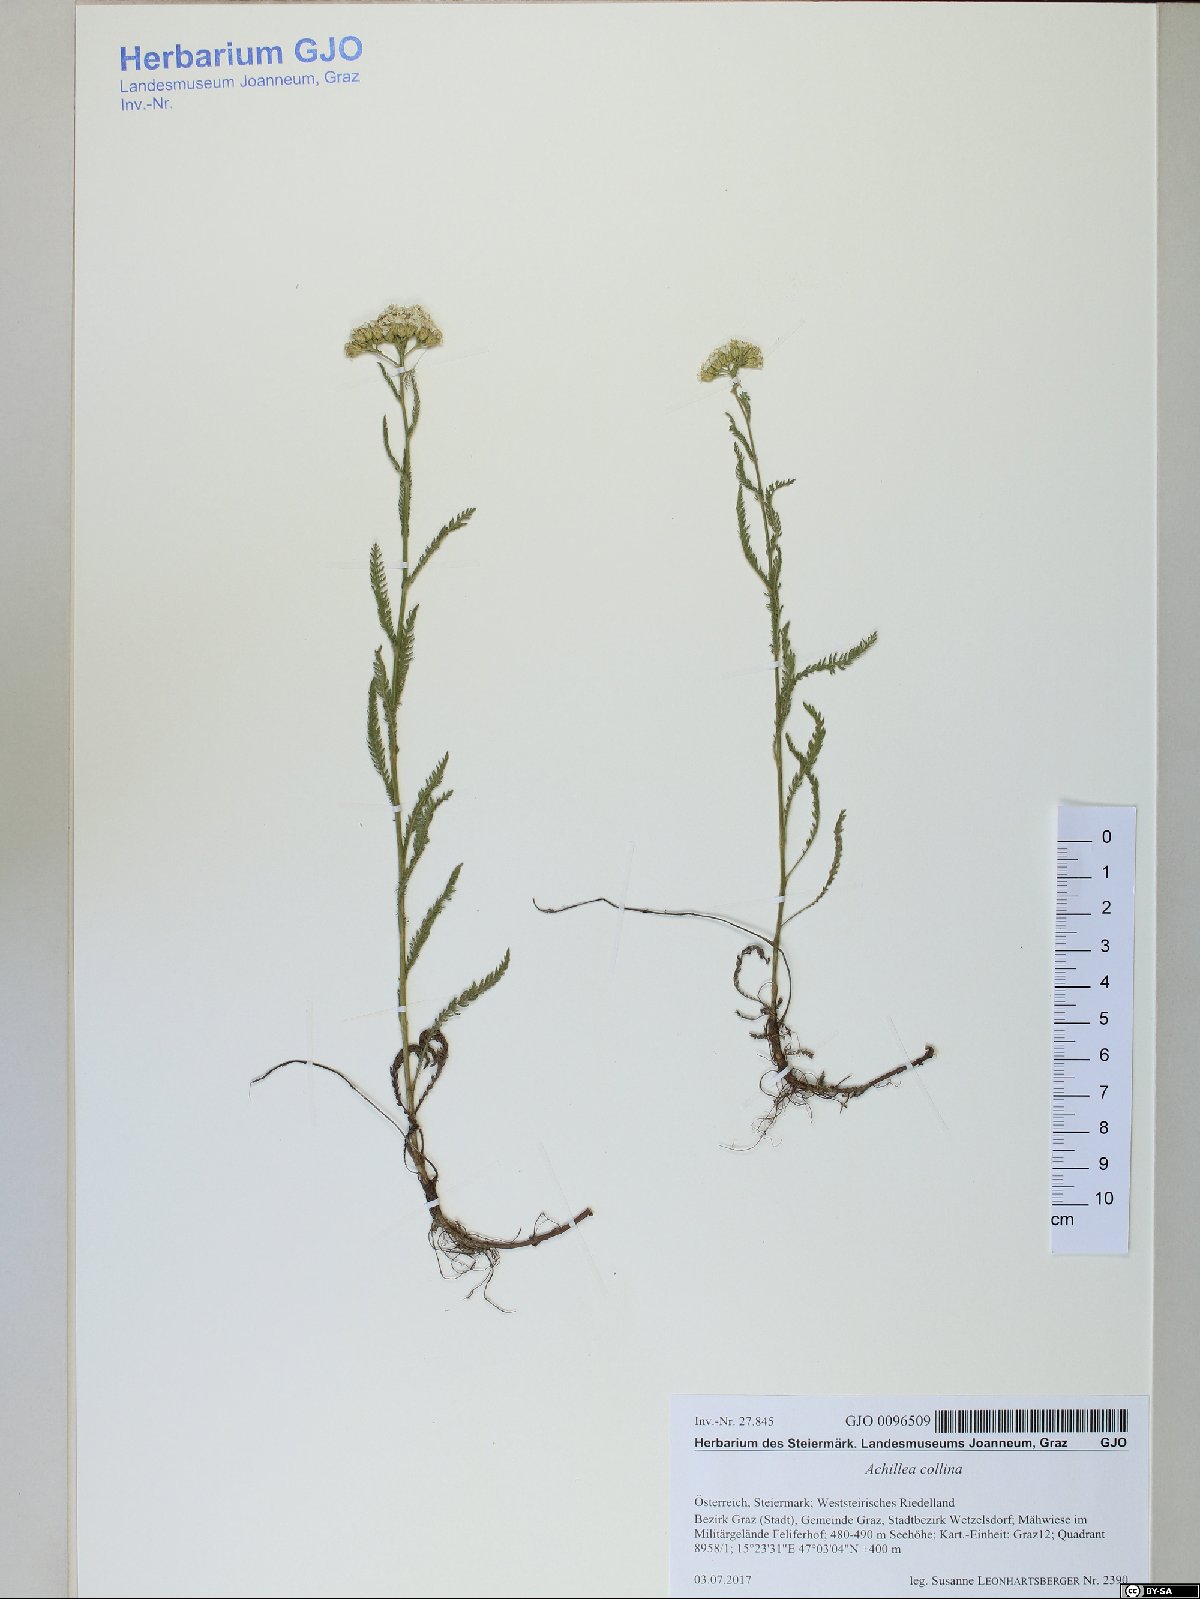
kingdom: Plantae
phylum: Tracheophyta
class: Magnoliopsida
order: Asterales
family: Asteraceae
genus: Achillea
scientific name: Achillea collina
